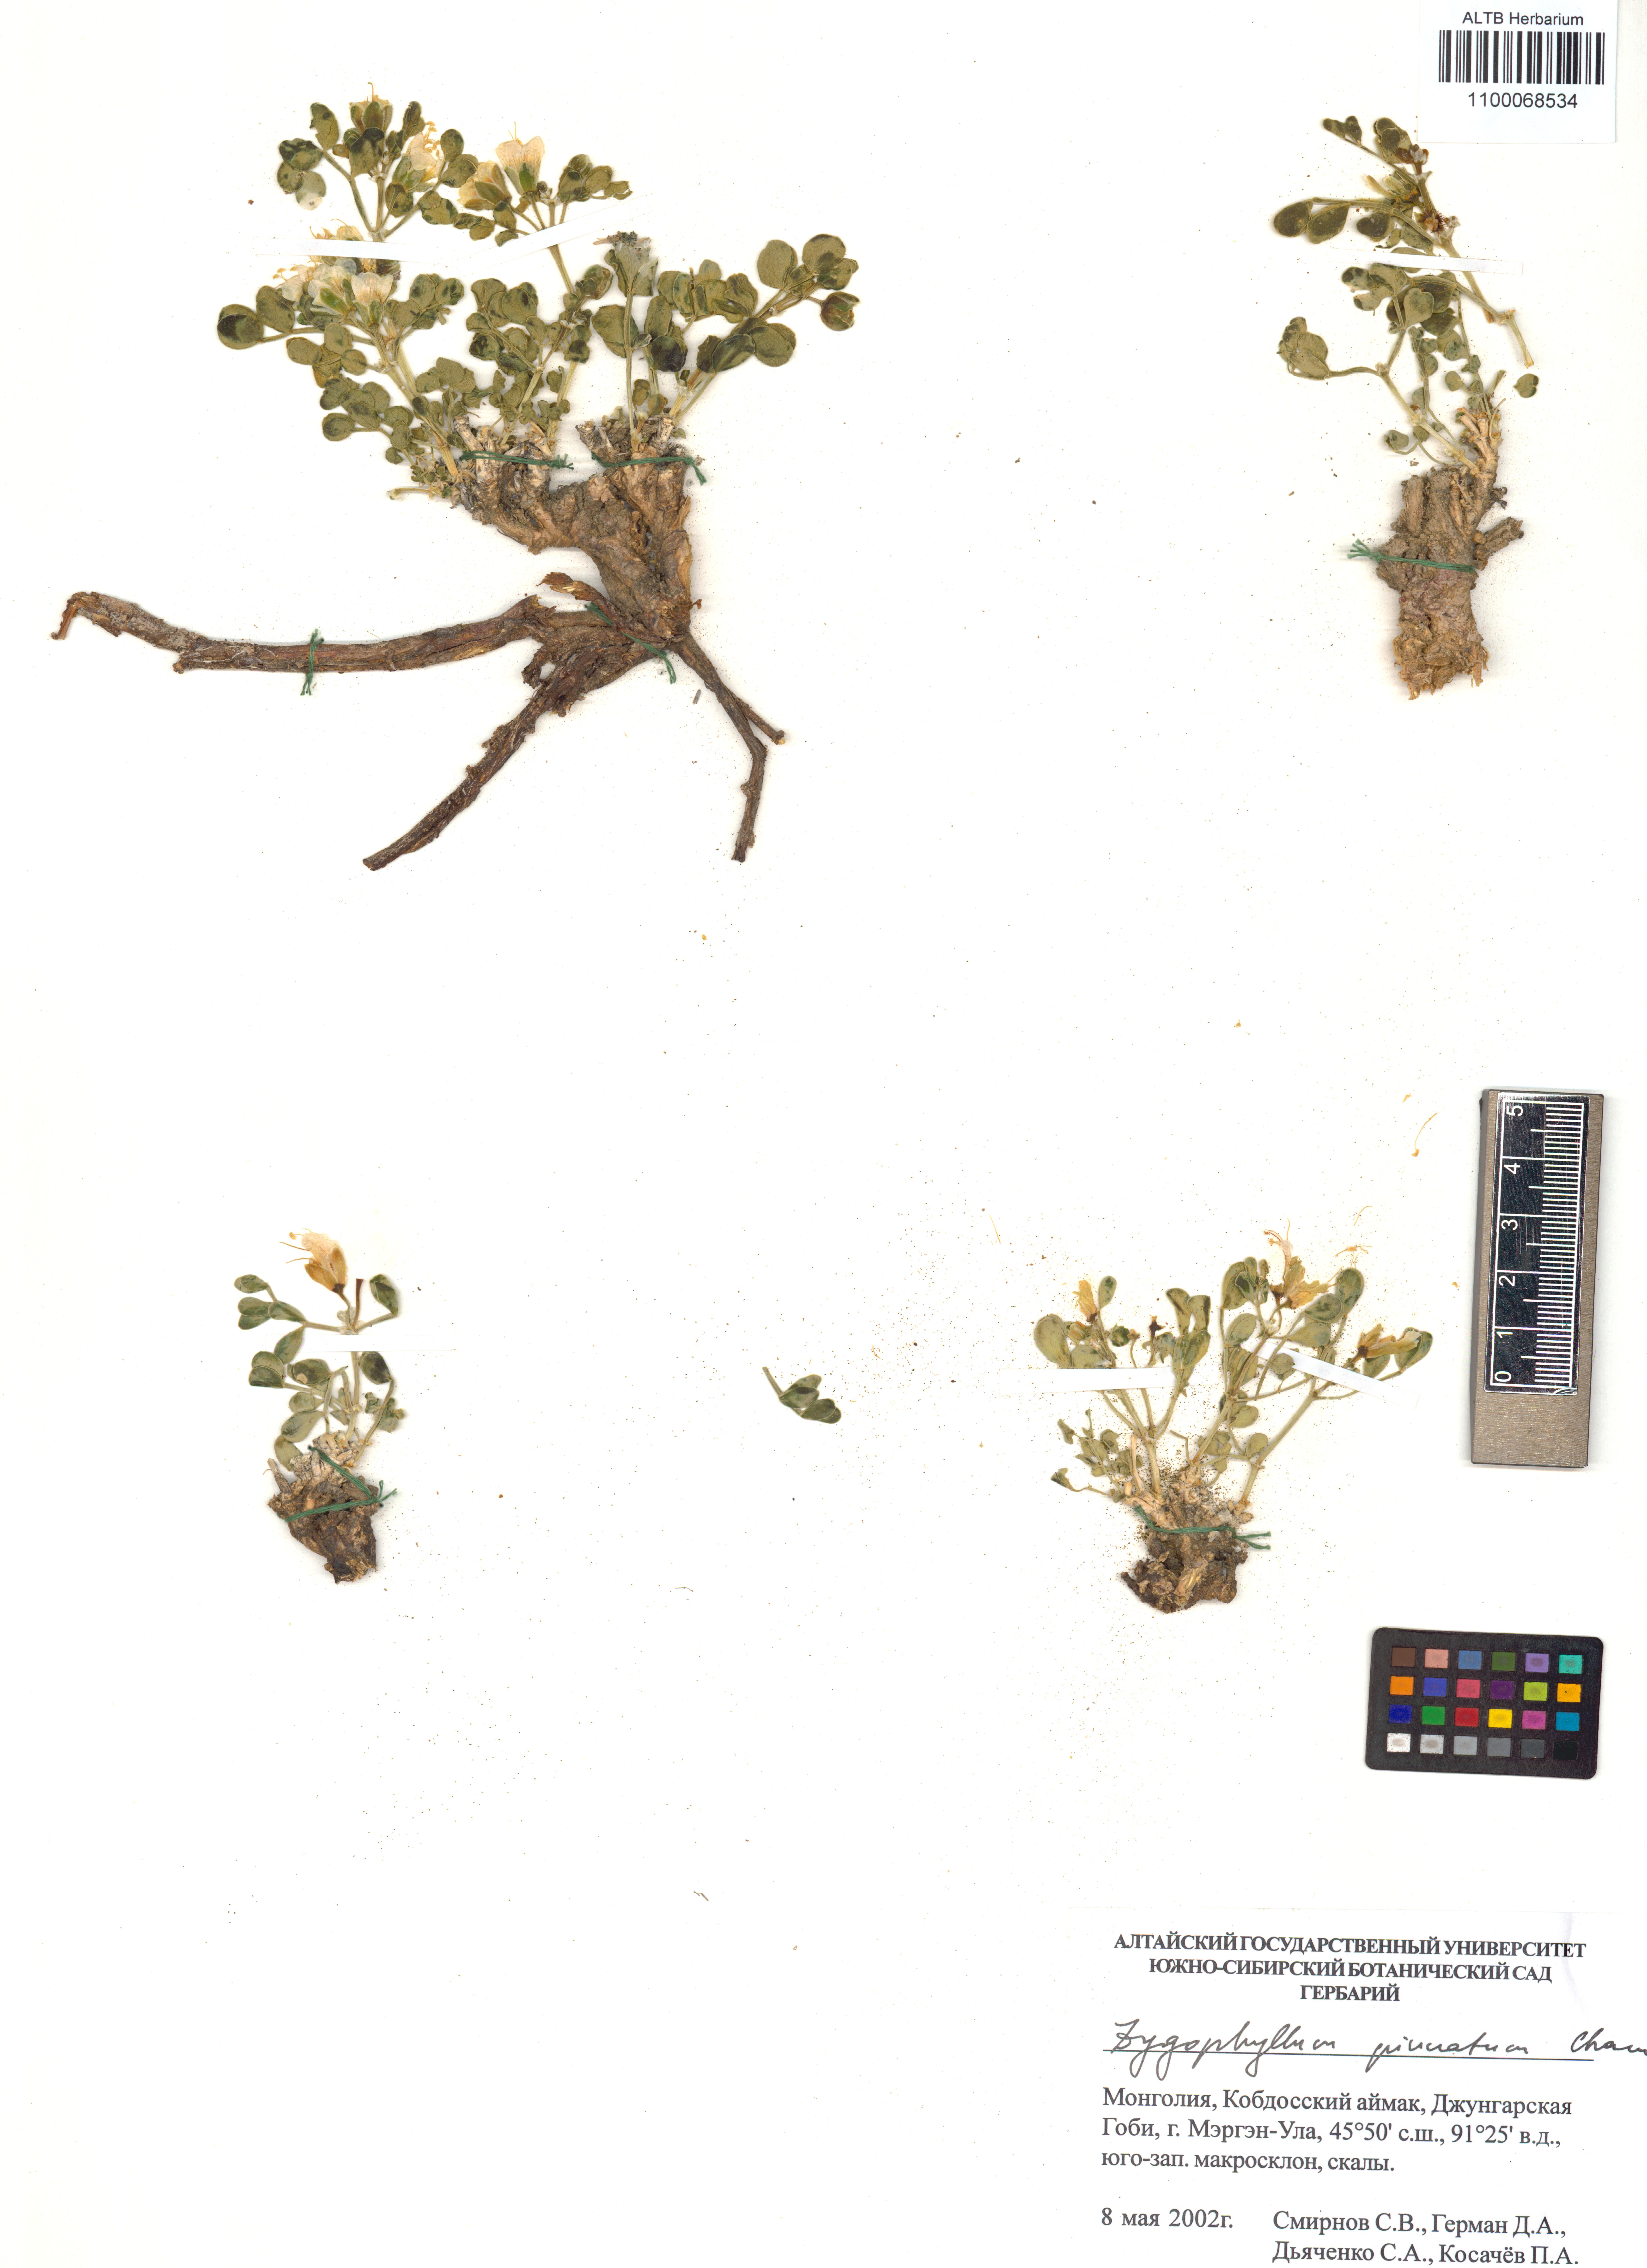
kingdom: Plantae
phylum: Tracheophyta
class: Magnoliopsida
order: Zygophyllales
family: Zygophyllaceae
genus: Zygophyllum
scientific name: Zygophyllum pinnatum
